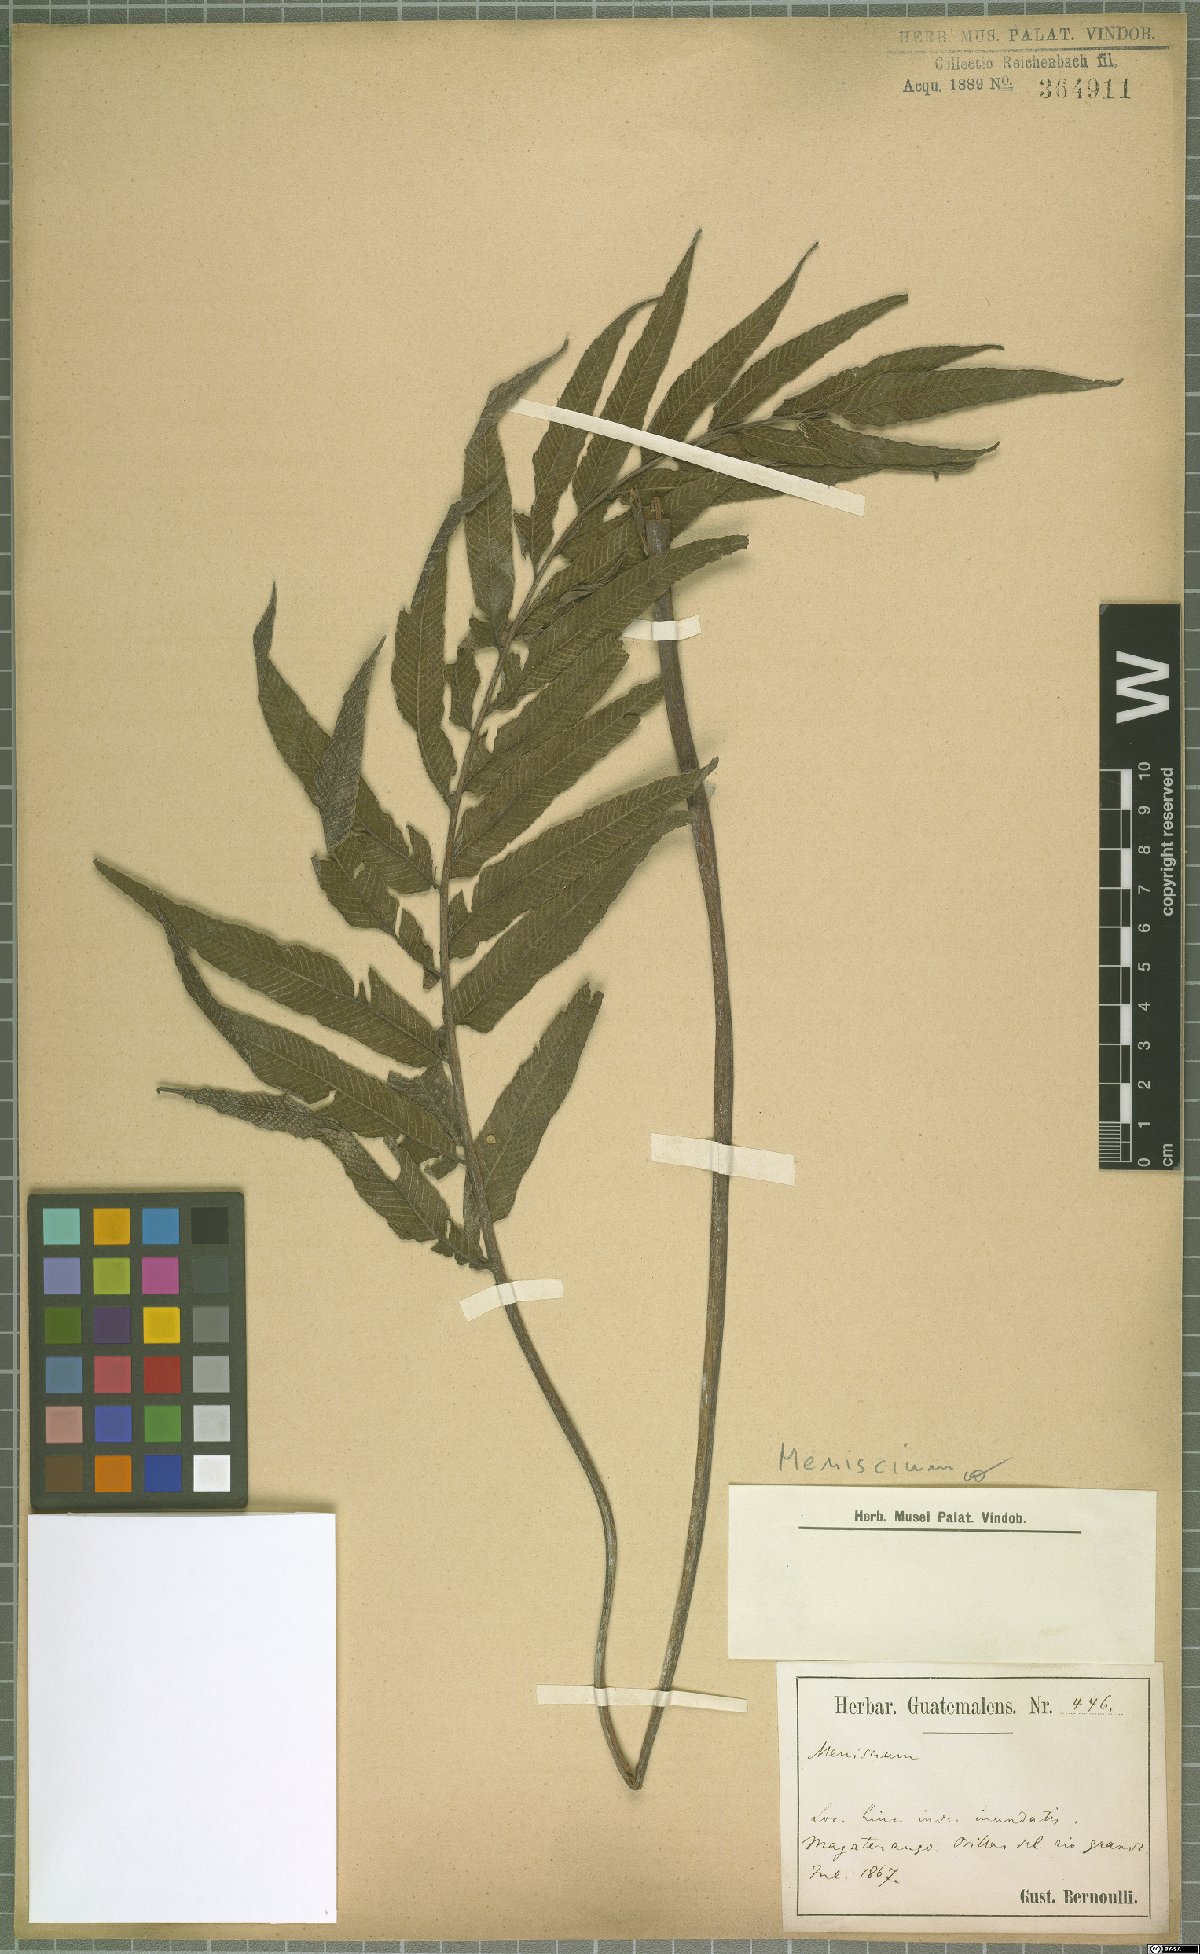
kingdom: Plantae
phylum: Tracheophyta
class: Polypodiopsida
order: Polypodiales
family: Thelypteridaceae
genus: Meniscium
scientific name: Meniscium angustifolium
